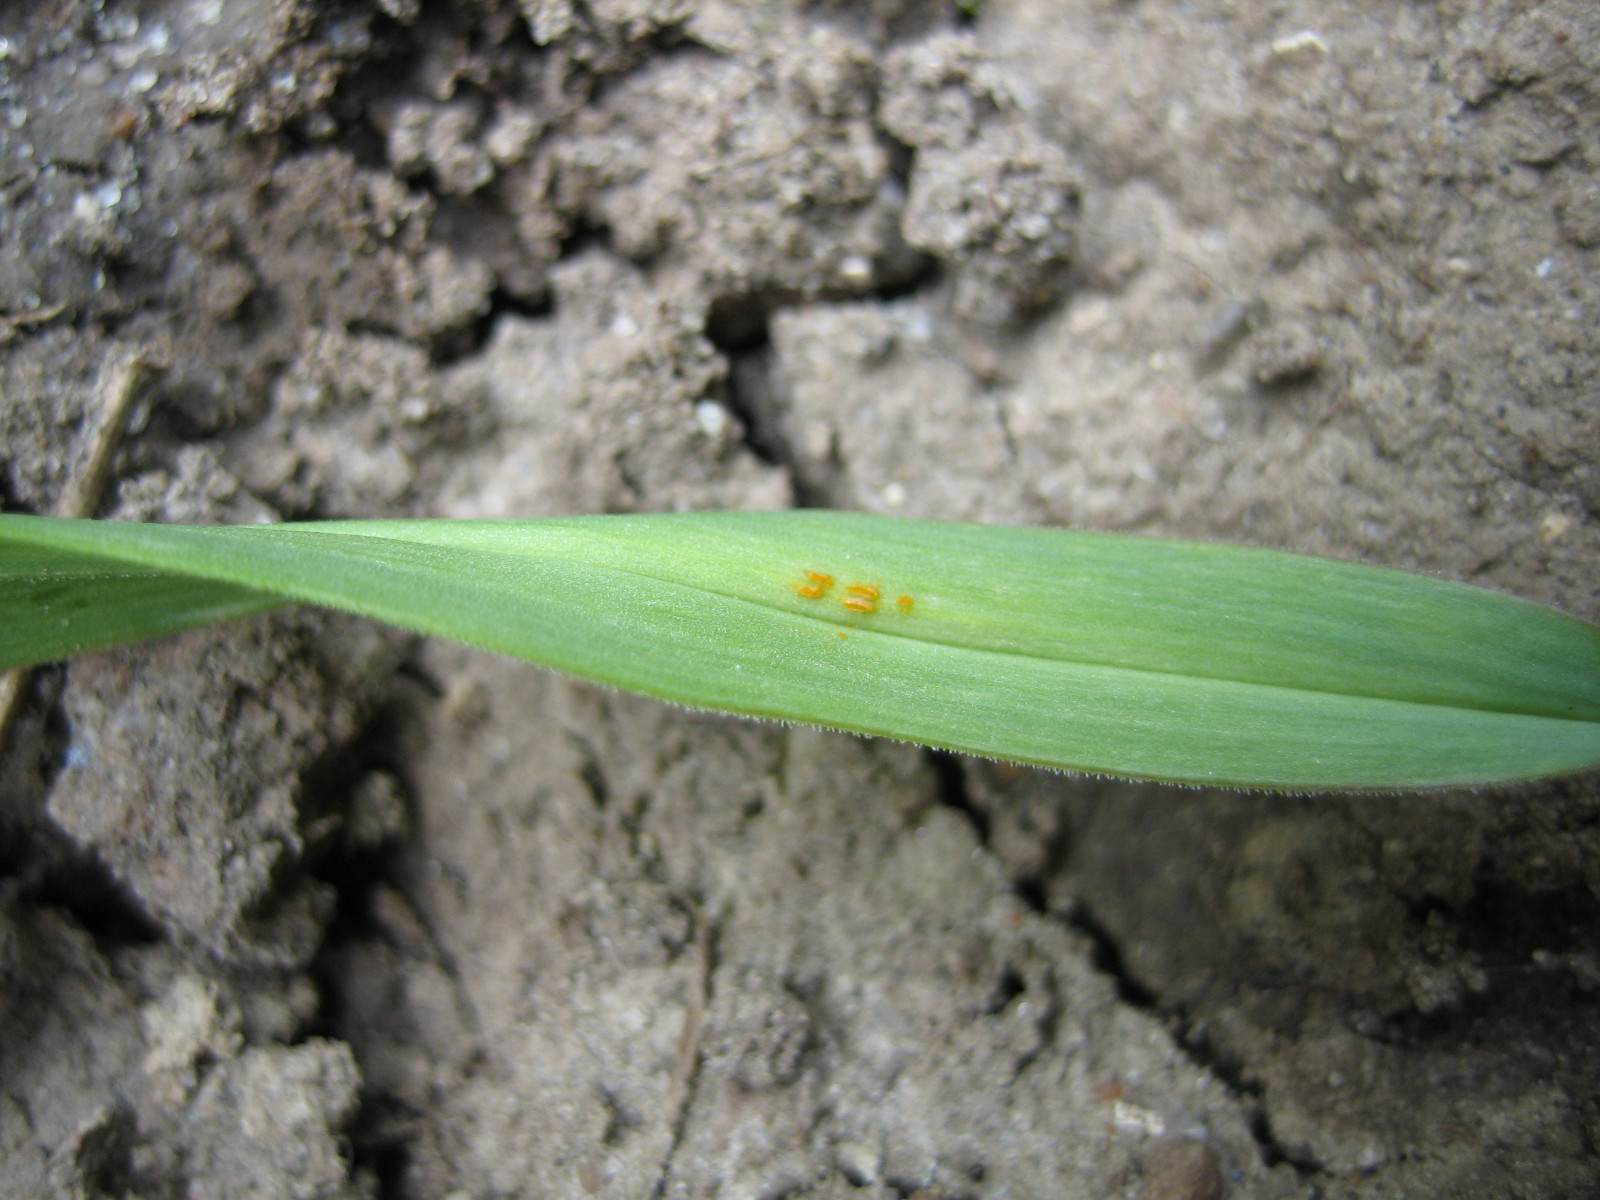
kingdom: Fungi
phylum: Basidiomycota
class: Pucciniomycetes
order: Pucciniales
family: Pucciniaceae
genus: Puccinia
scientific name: Puccinia porri
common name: Allium rust
